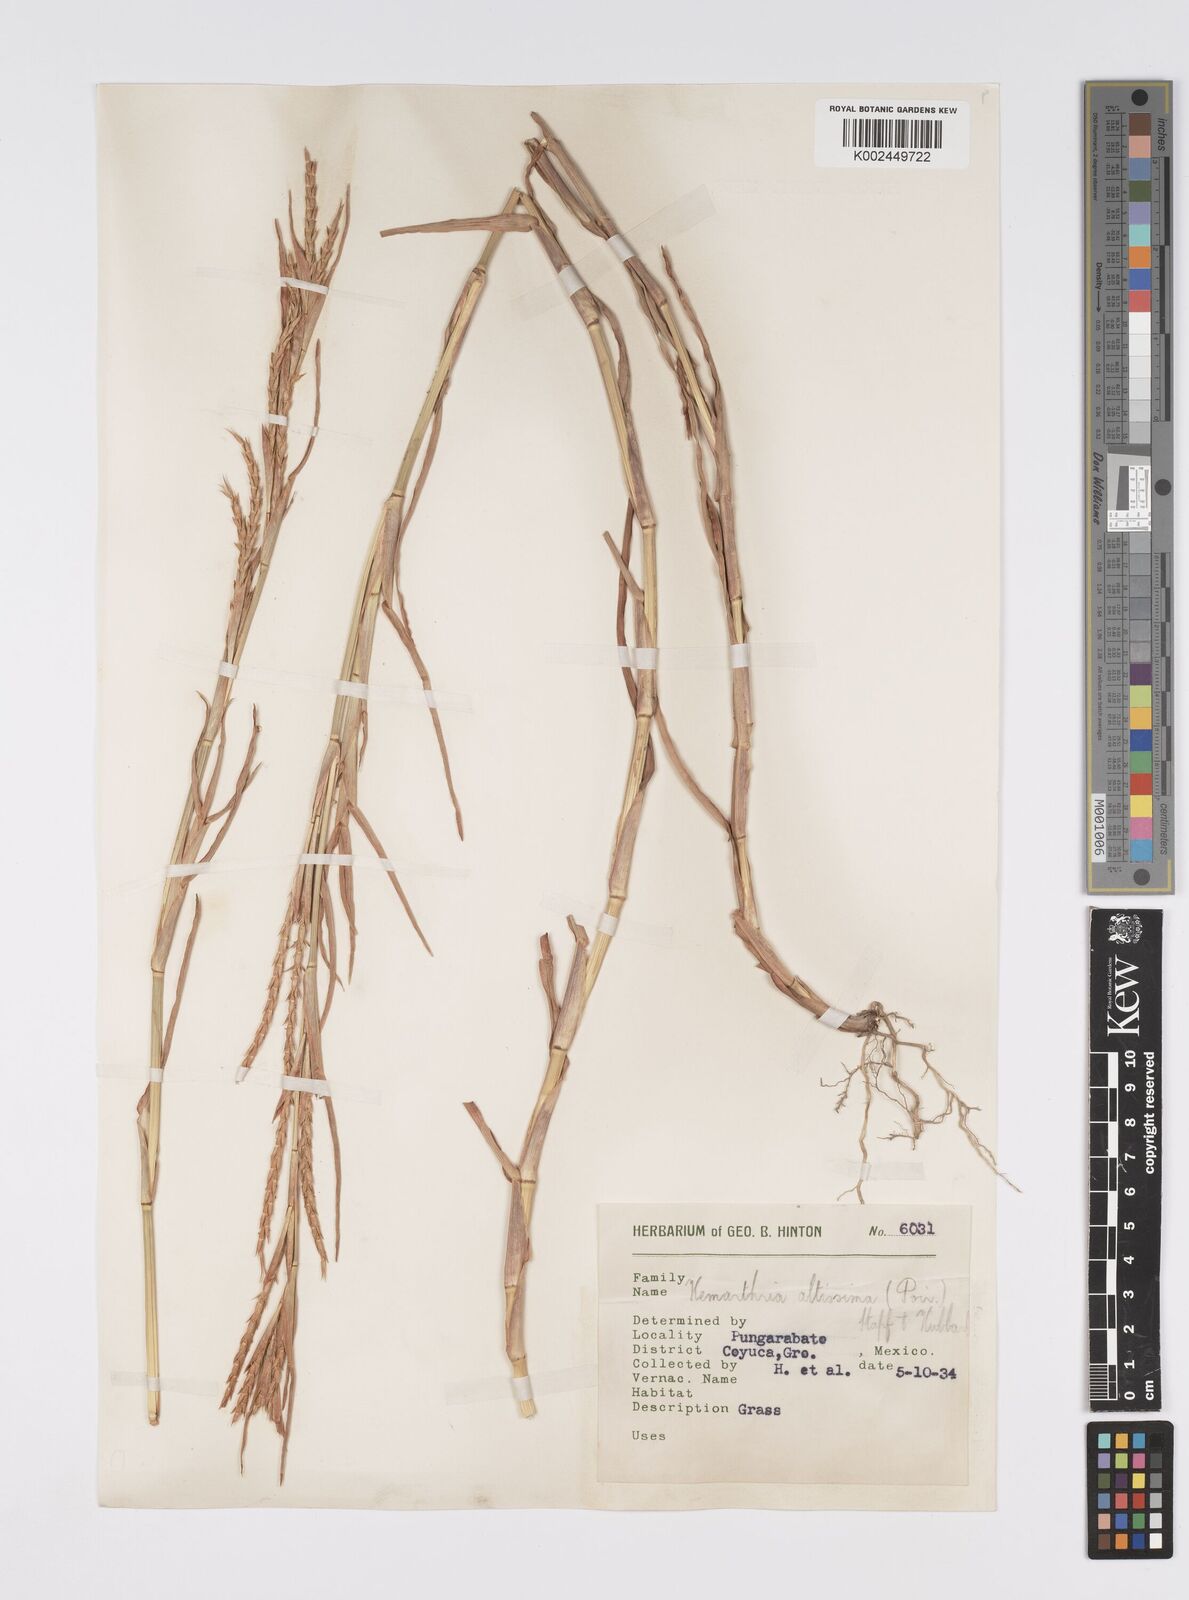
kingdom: Plantae
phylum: Tracheophyta
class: Liliopsida
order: Poales
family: Poaceae
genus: Hemarthria
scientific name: Hemarthria altissima
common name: African jointgrass
